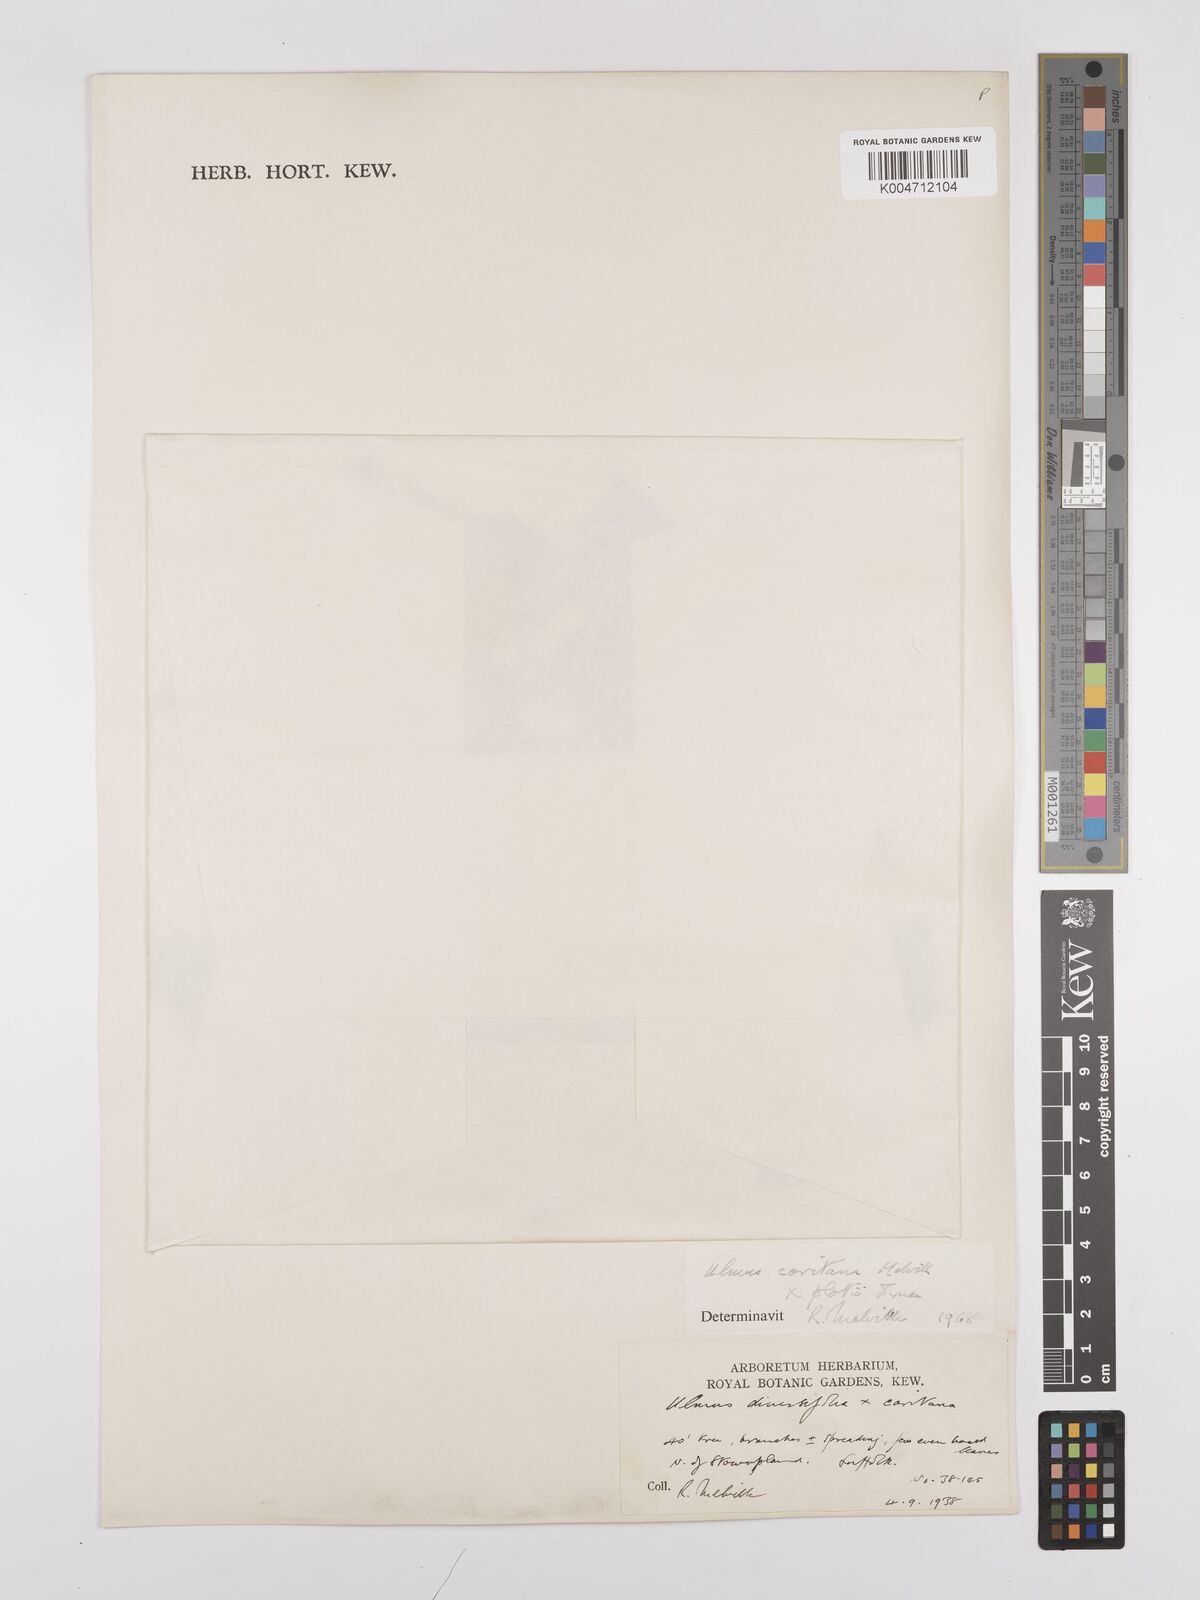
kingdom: Plantae
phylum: Tracheophyta
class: Magnoliopsida
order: Rosales
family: Ulmaceae
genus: Ulmus
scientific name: Ulmus minor
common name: Small-leaved elm
